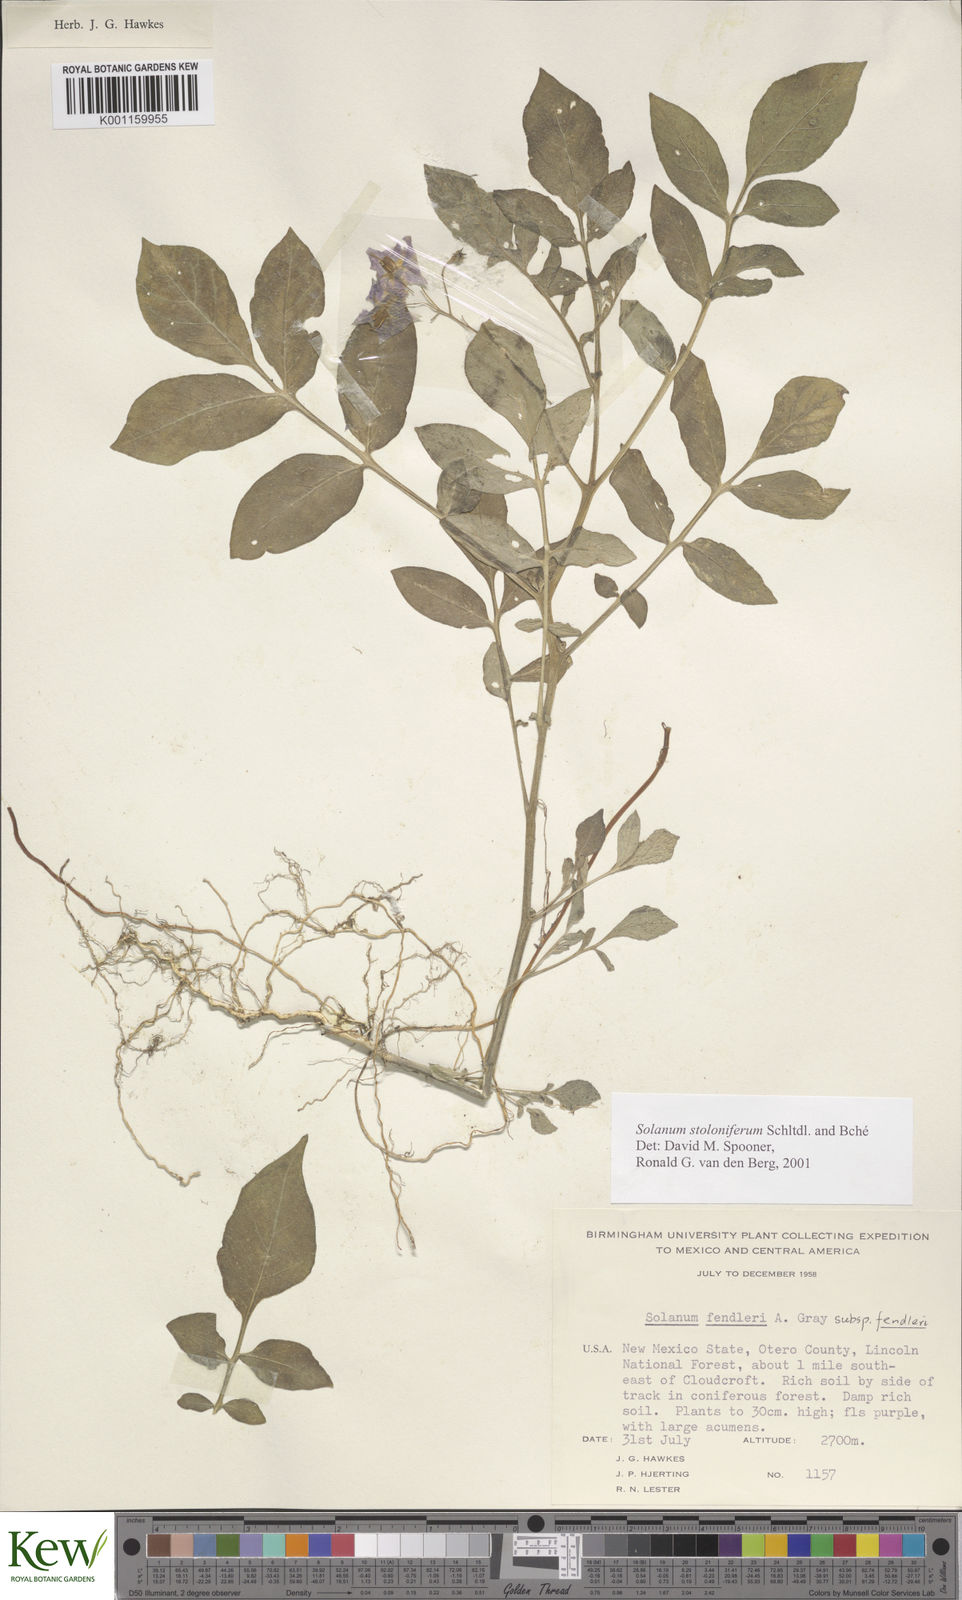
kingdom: Plantae
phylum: Tracheophyta
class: Magnoliopsida
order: Solanales
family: Solanaceae
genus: Solanum
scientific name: Solanum stoloniferum
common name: Fendler's nighshade
